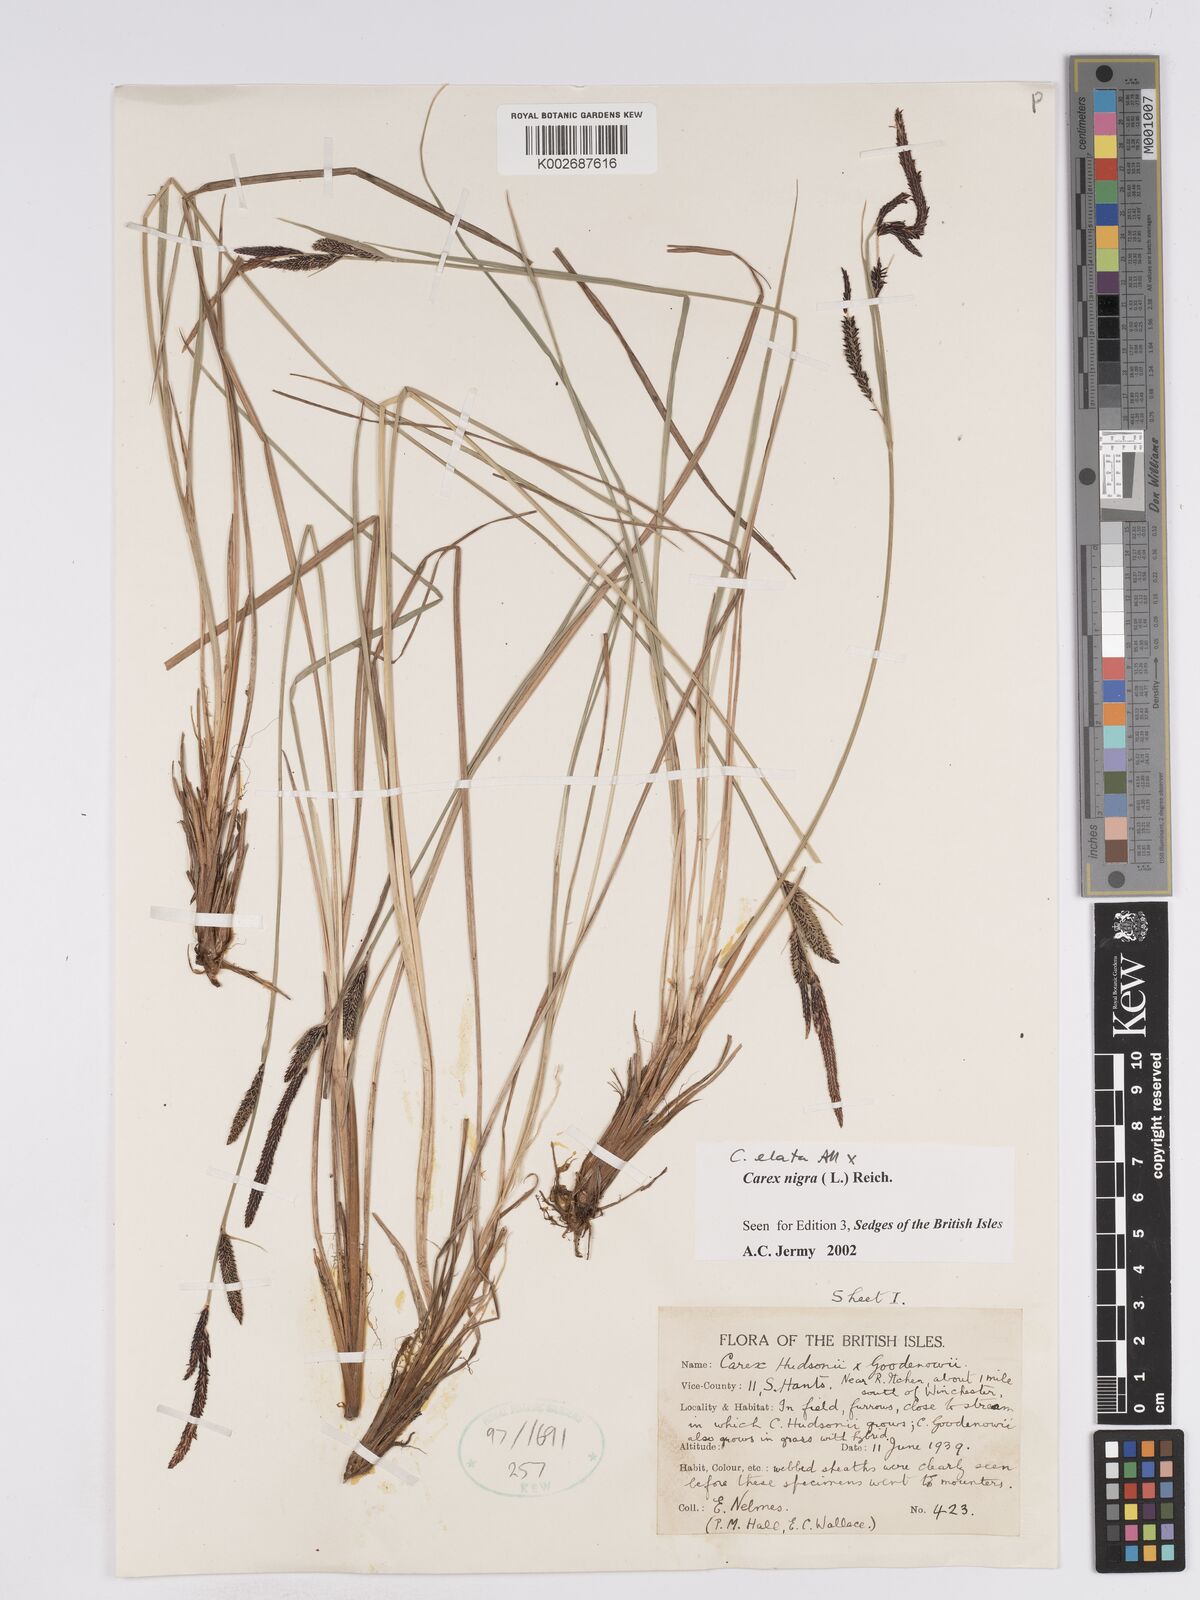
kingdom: Plantae
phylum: Tracheophyta
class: Liliopsida
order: Poales
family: Cyperaceae
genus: Carex
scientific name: Carex elata
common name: Tufted sedge
